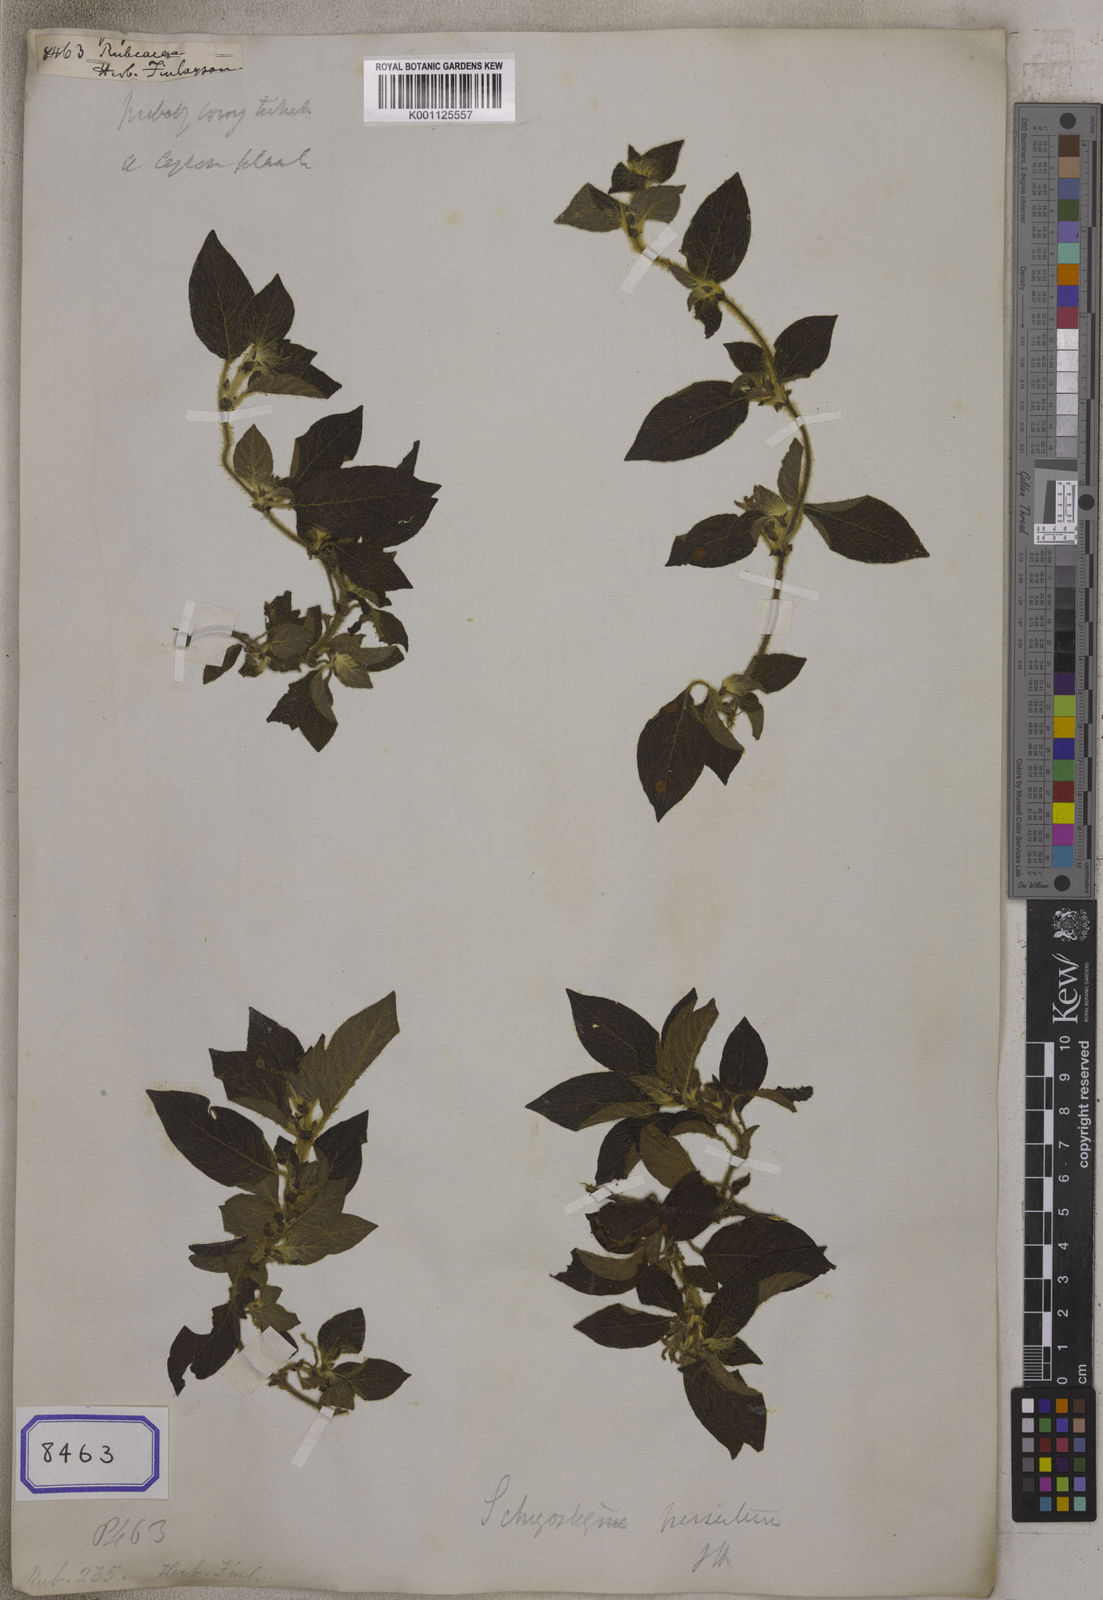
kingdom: Plantae
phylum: Tracheophyta
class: Magnoliopsida
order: Gentianales
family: Rubiaceae
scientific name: Rubiaceae
